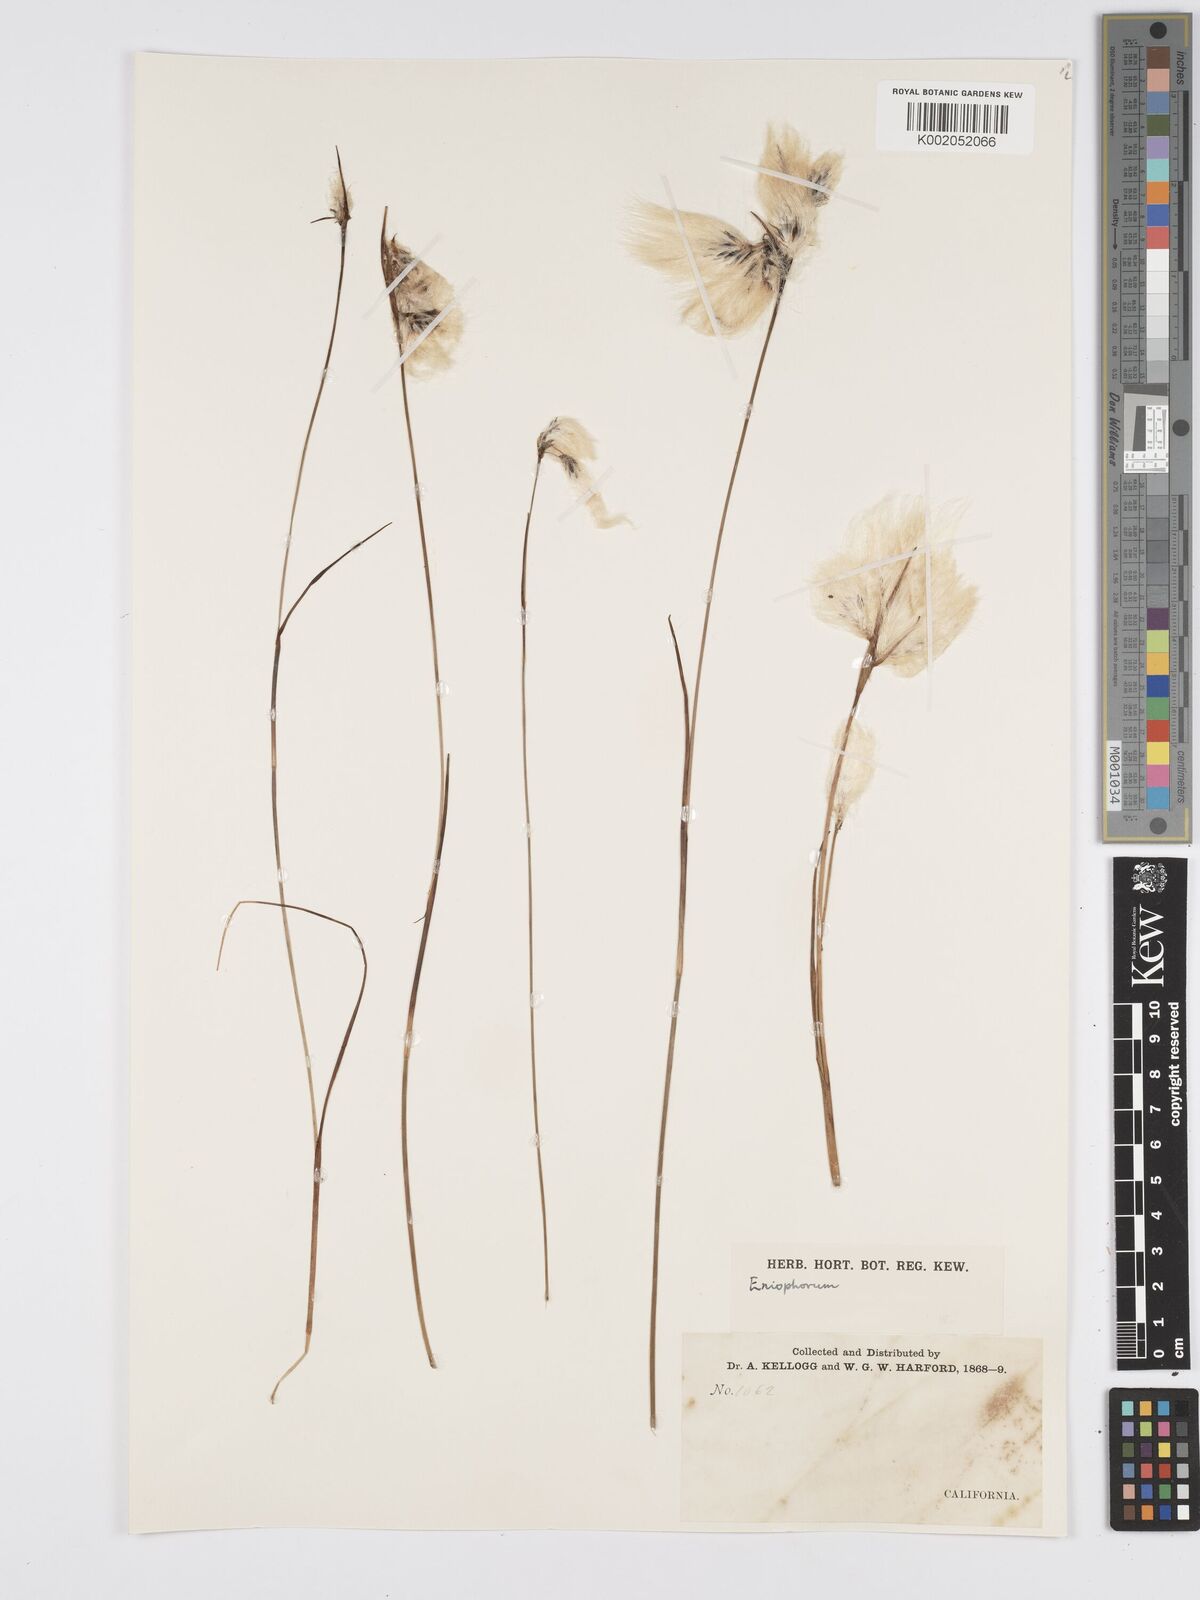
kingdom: Plantae
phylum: Tracheophyta
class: Liliopsida
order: Poales
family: Cyperaceae
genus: Eriophorum
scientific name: Eriophorum
